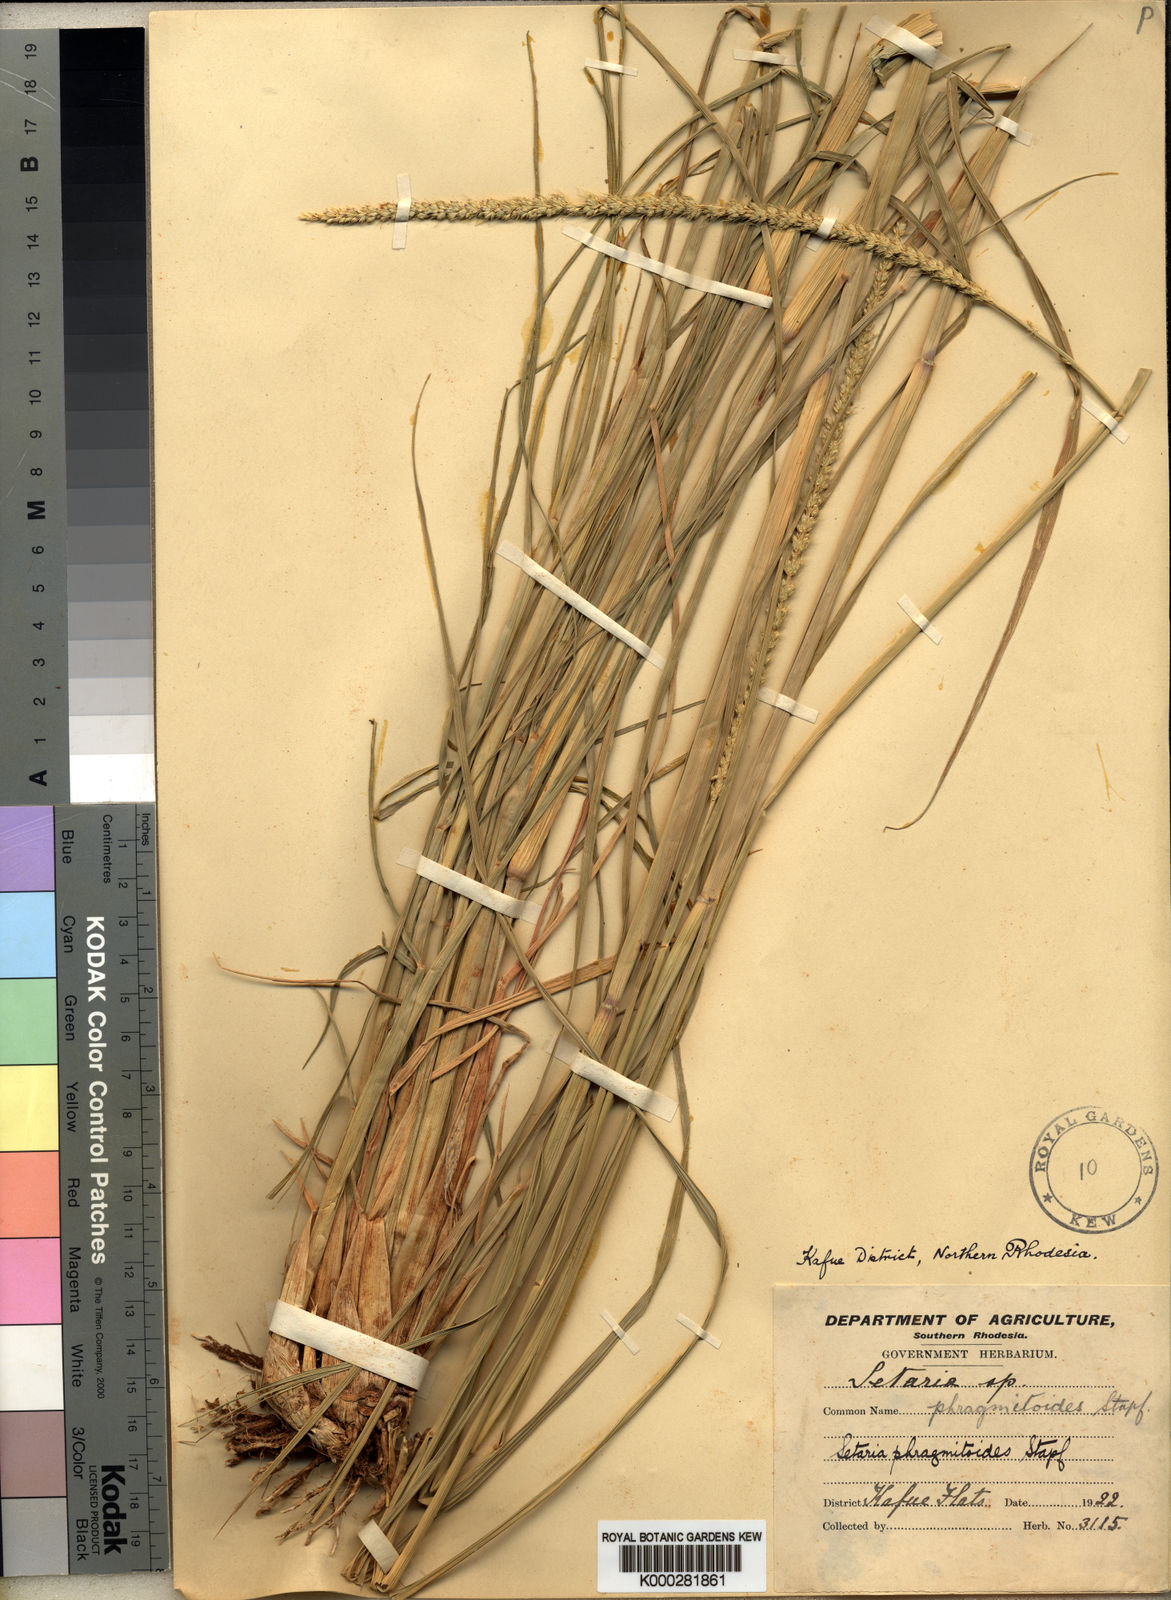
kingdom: Plantae
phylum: Tracheophyta
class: Liliopsida
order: Poales
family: Poaceae
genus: Setaria
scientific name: Setaria incrassata
